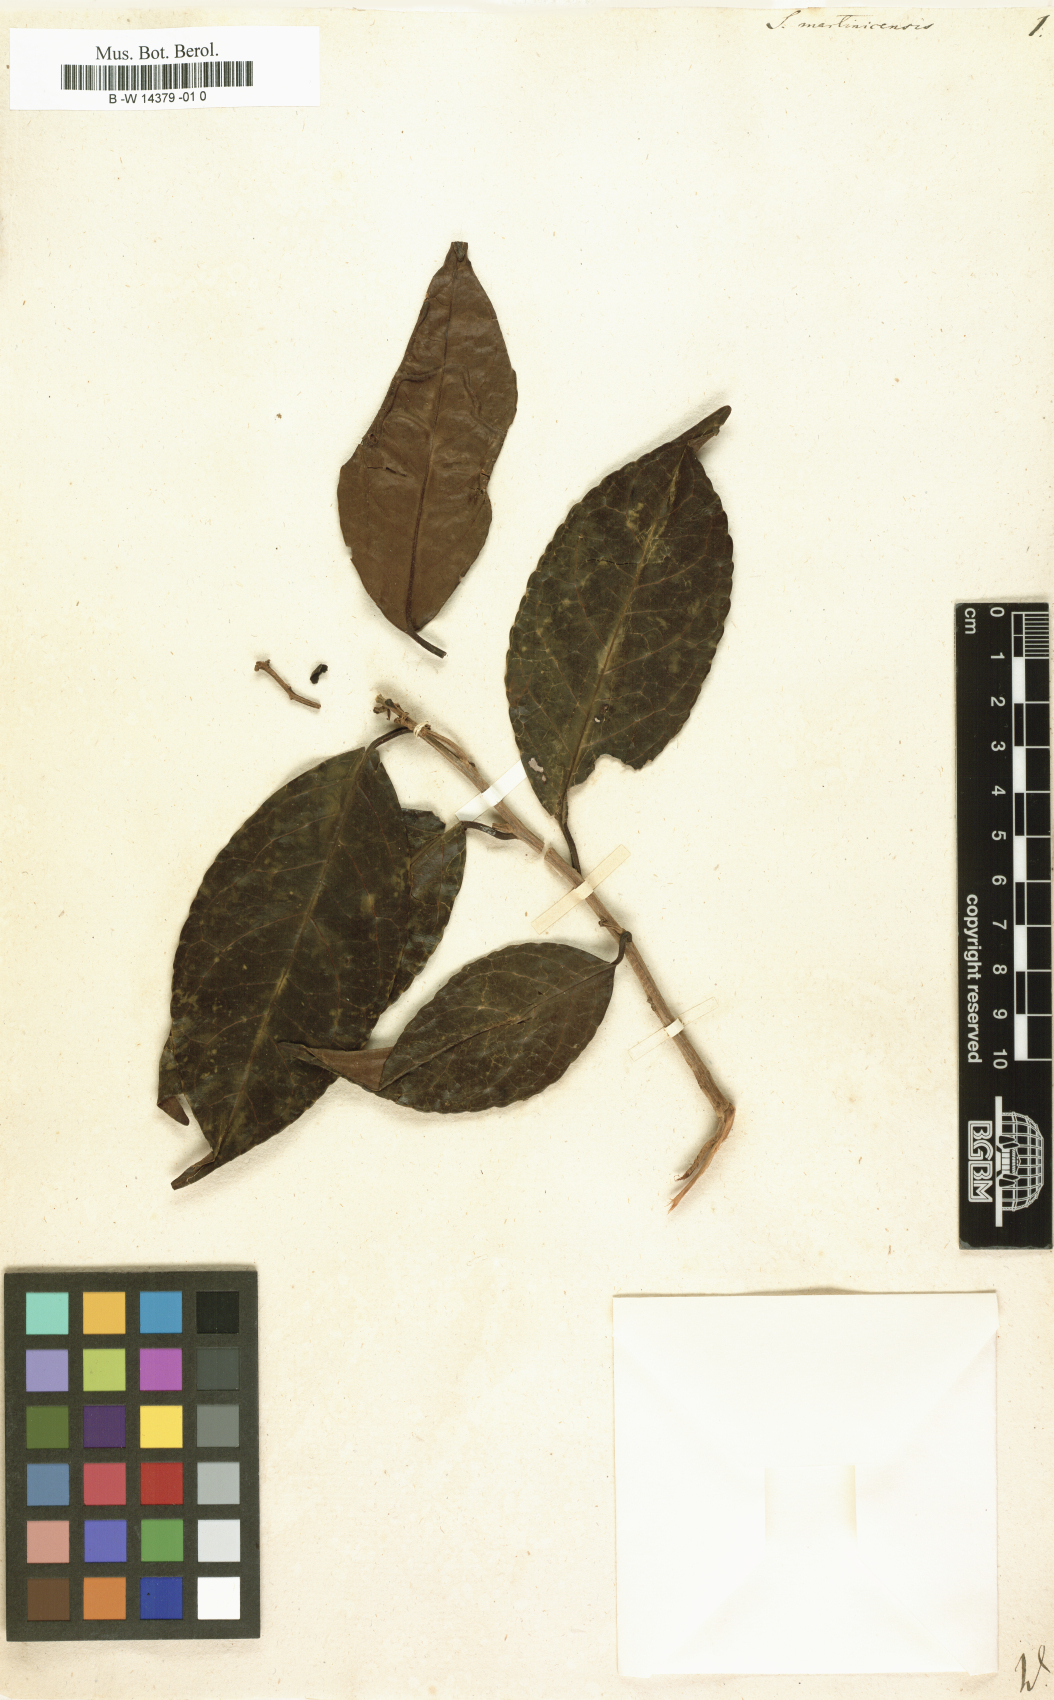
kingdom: Plantae
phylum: Tracheophyta
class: Magnoliopsida
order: Ericales
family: Symplocaceae
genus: Symplocos
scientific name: Symplocos martinicensis
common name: Blueberry
